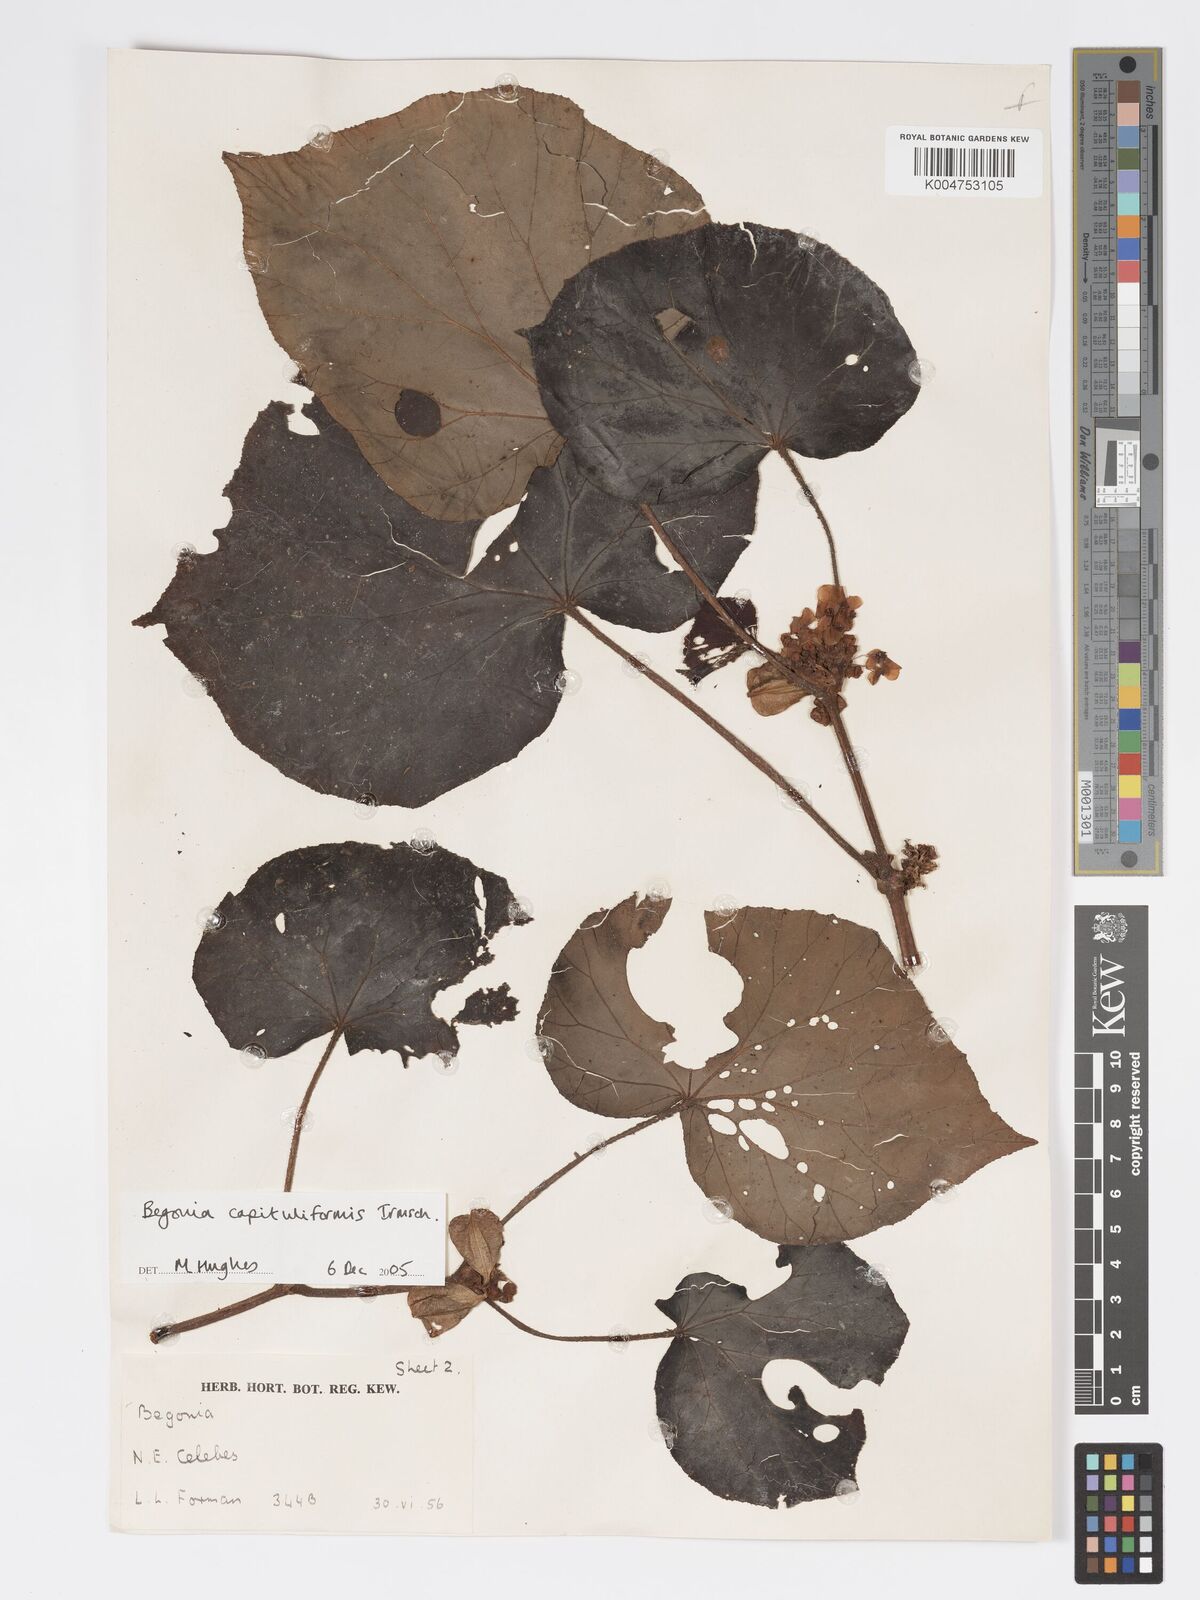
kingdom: Plantae
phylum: Tracheophyta
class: Magnoliopsida
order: Cucurbitales
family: Begoniaceae
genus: Begonia
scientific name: Begonia capituliformis
